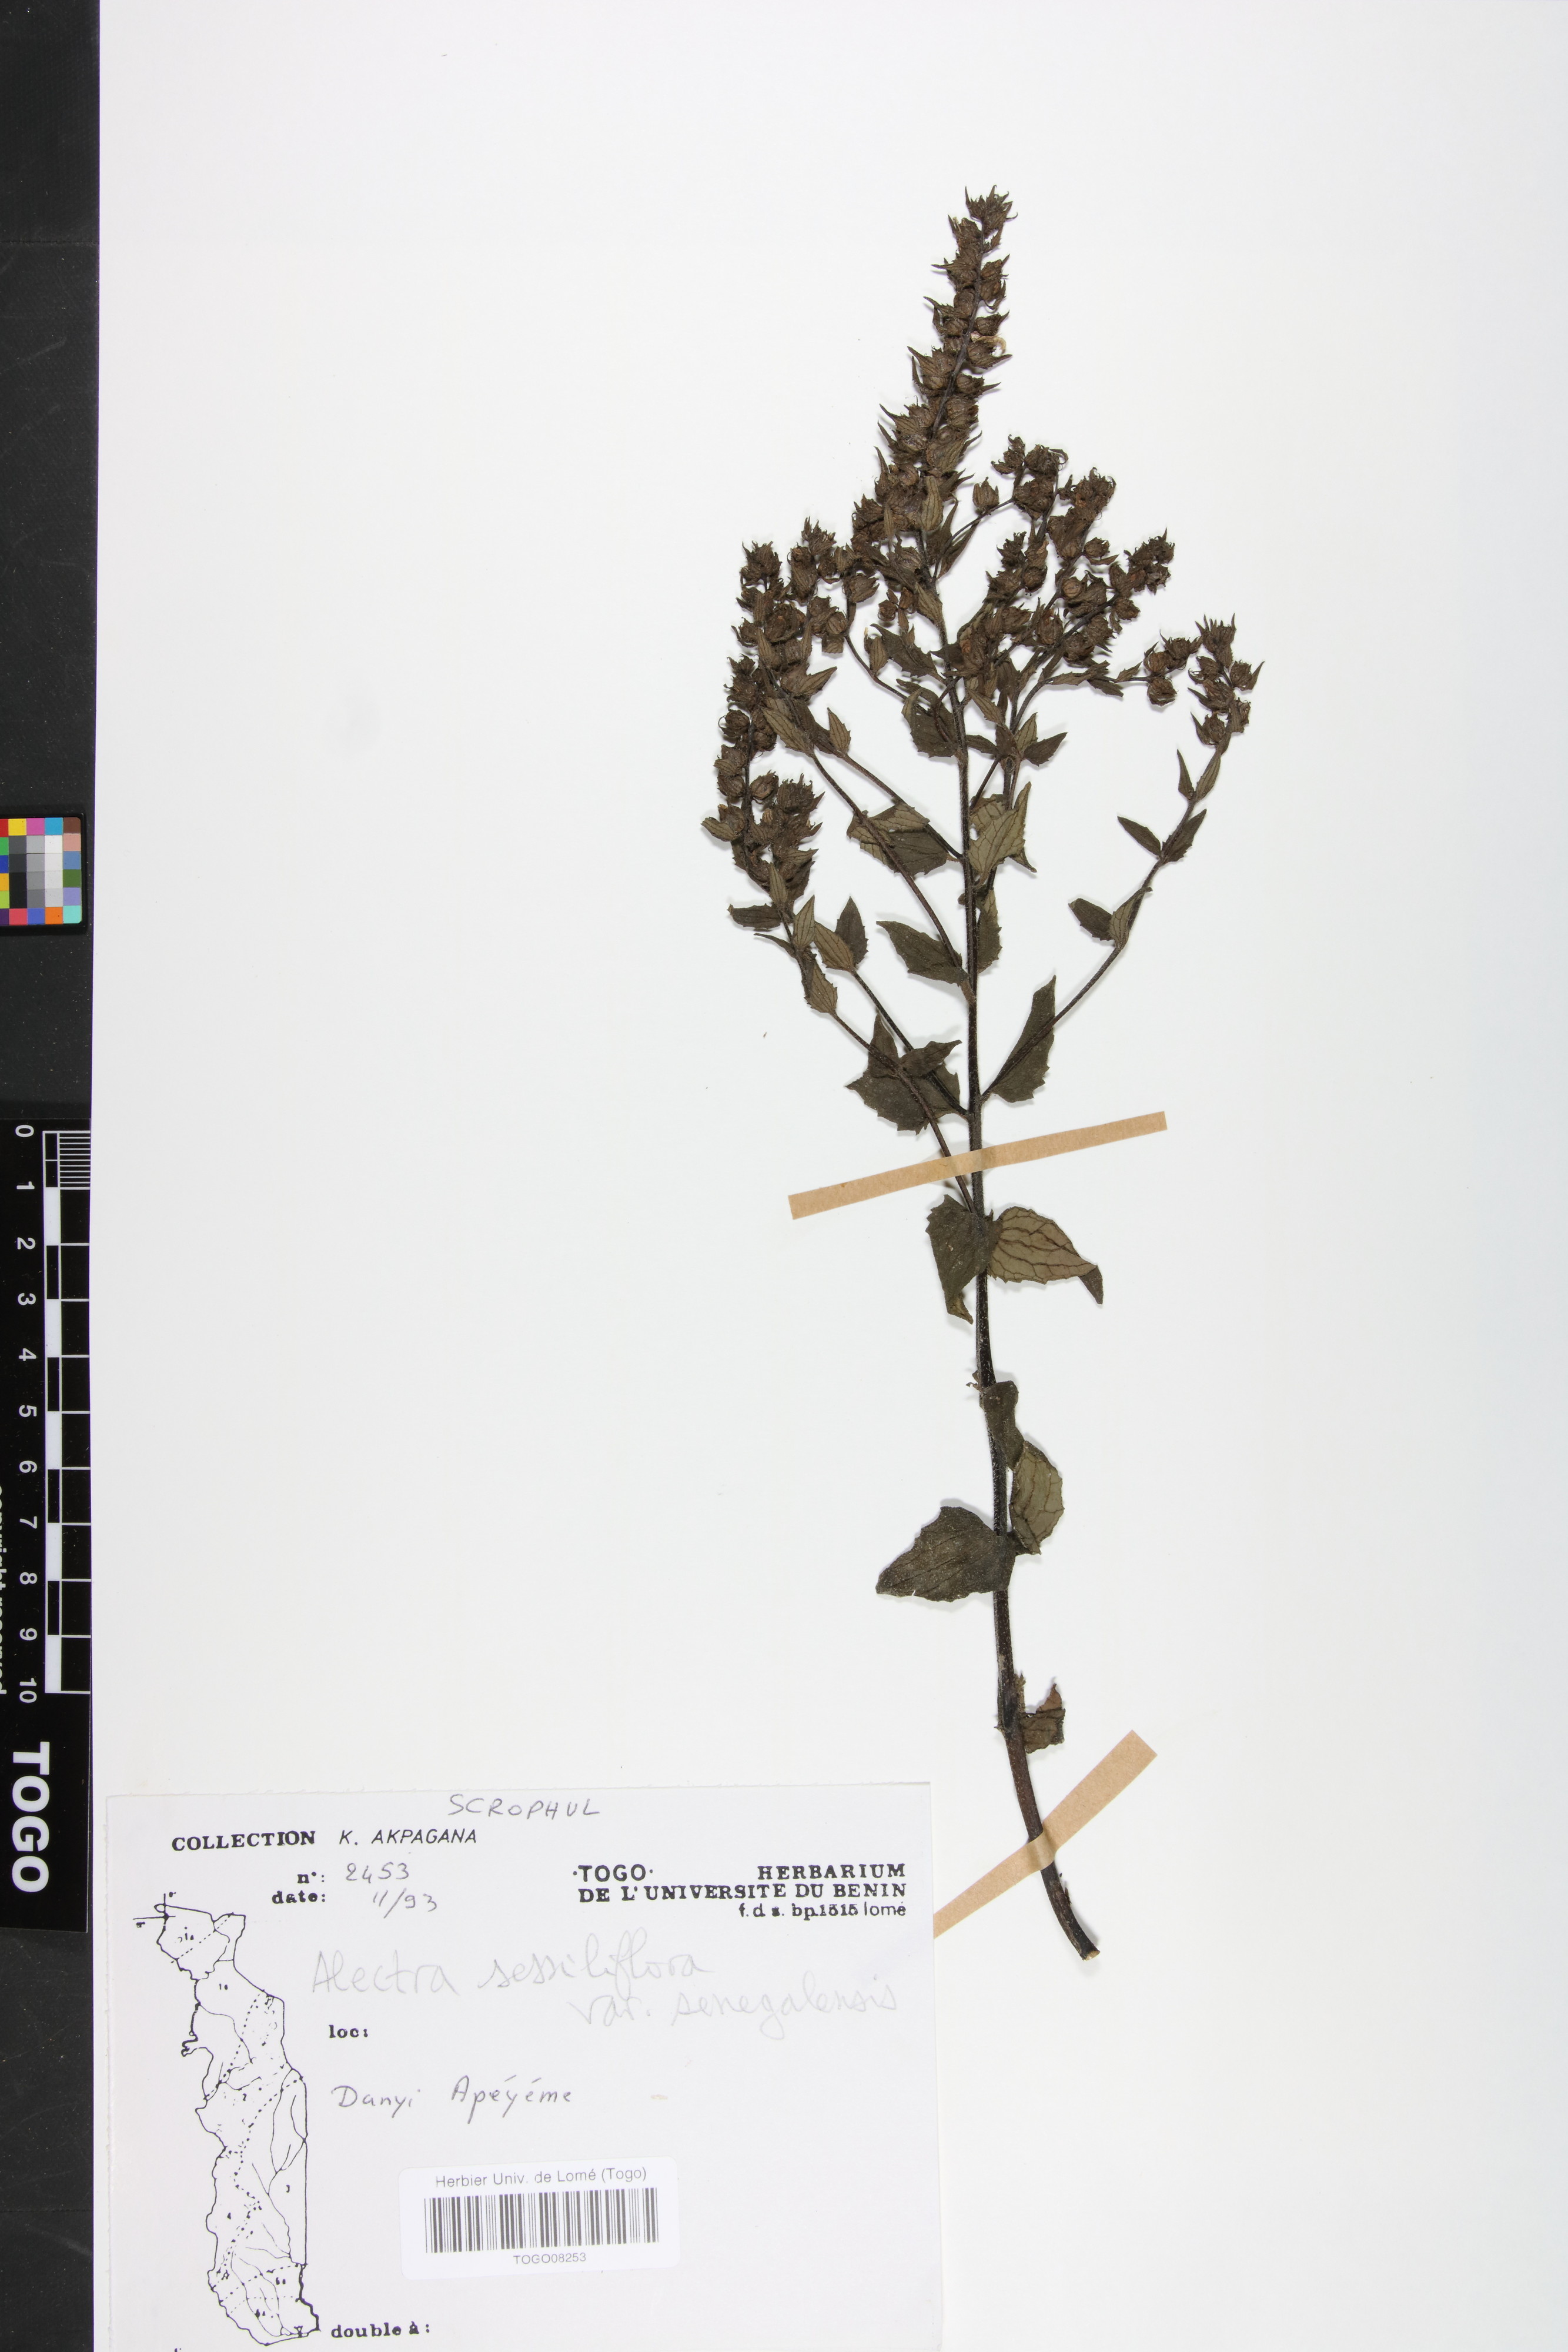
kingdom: Plantae
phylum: Tracheophyta
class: Magnoliopsida
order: Lamiales
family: Orobanchaceae
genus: Alectra
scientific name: Alectra sessiliflora
